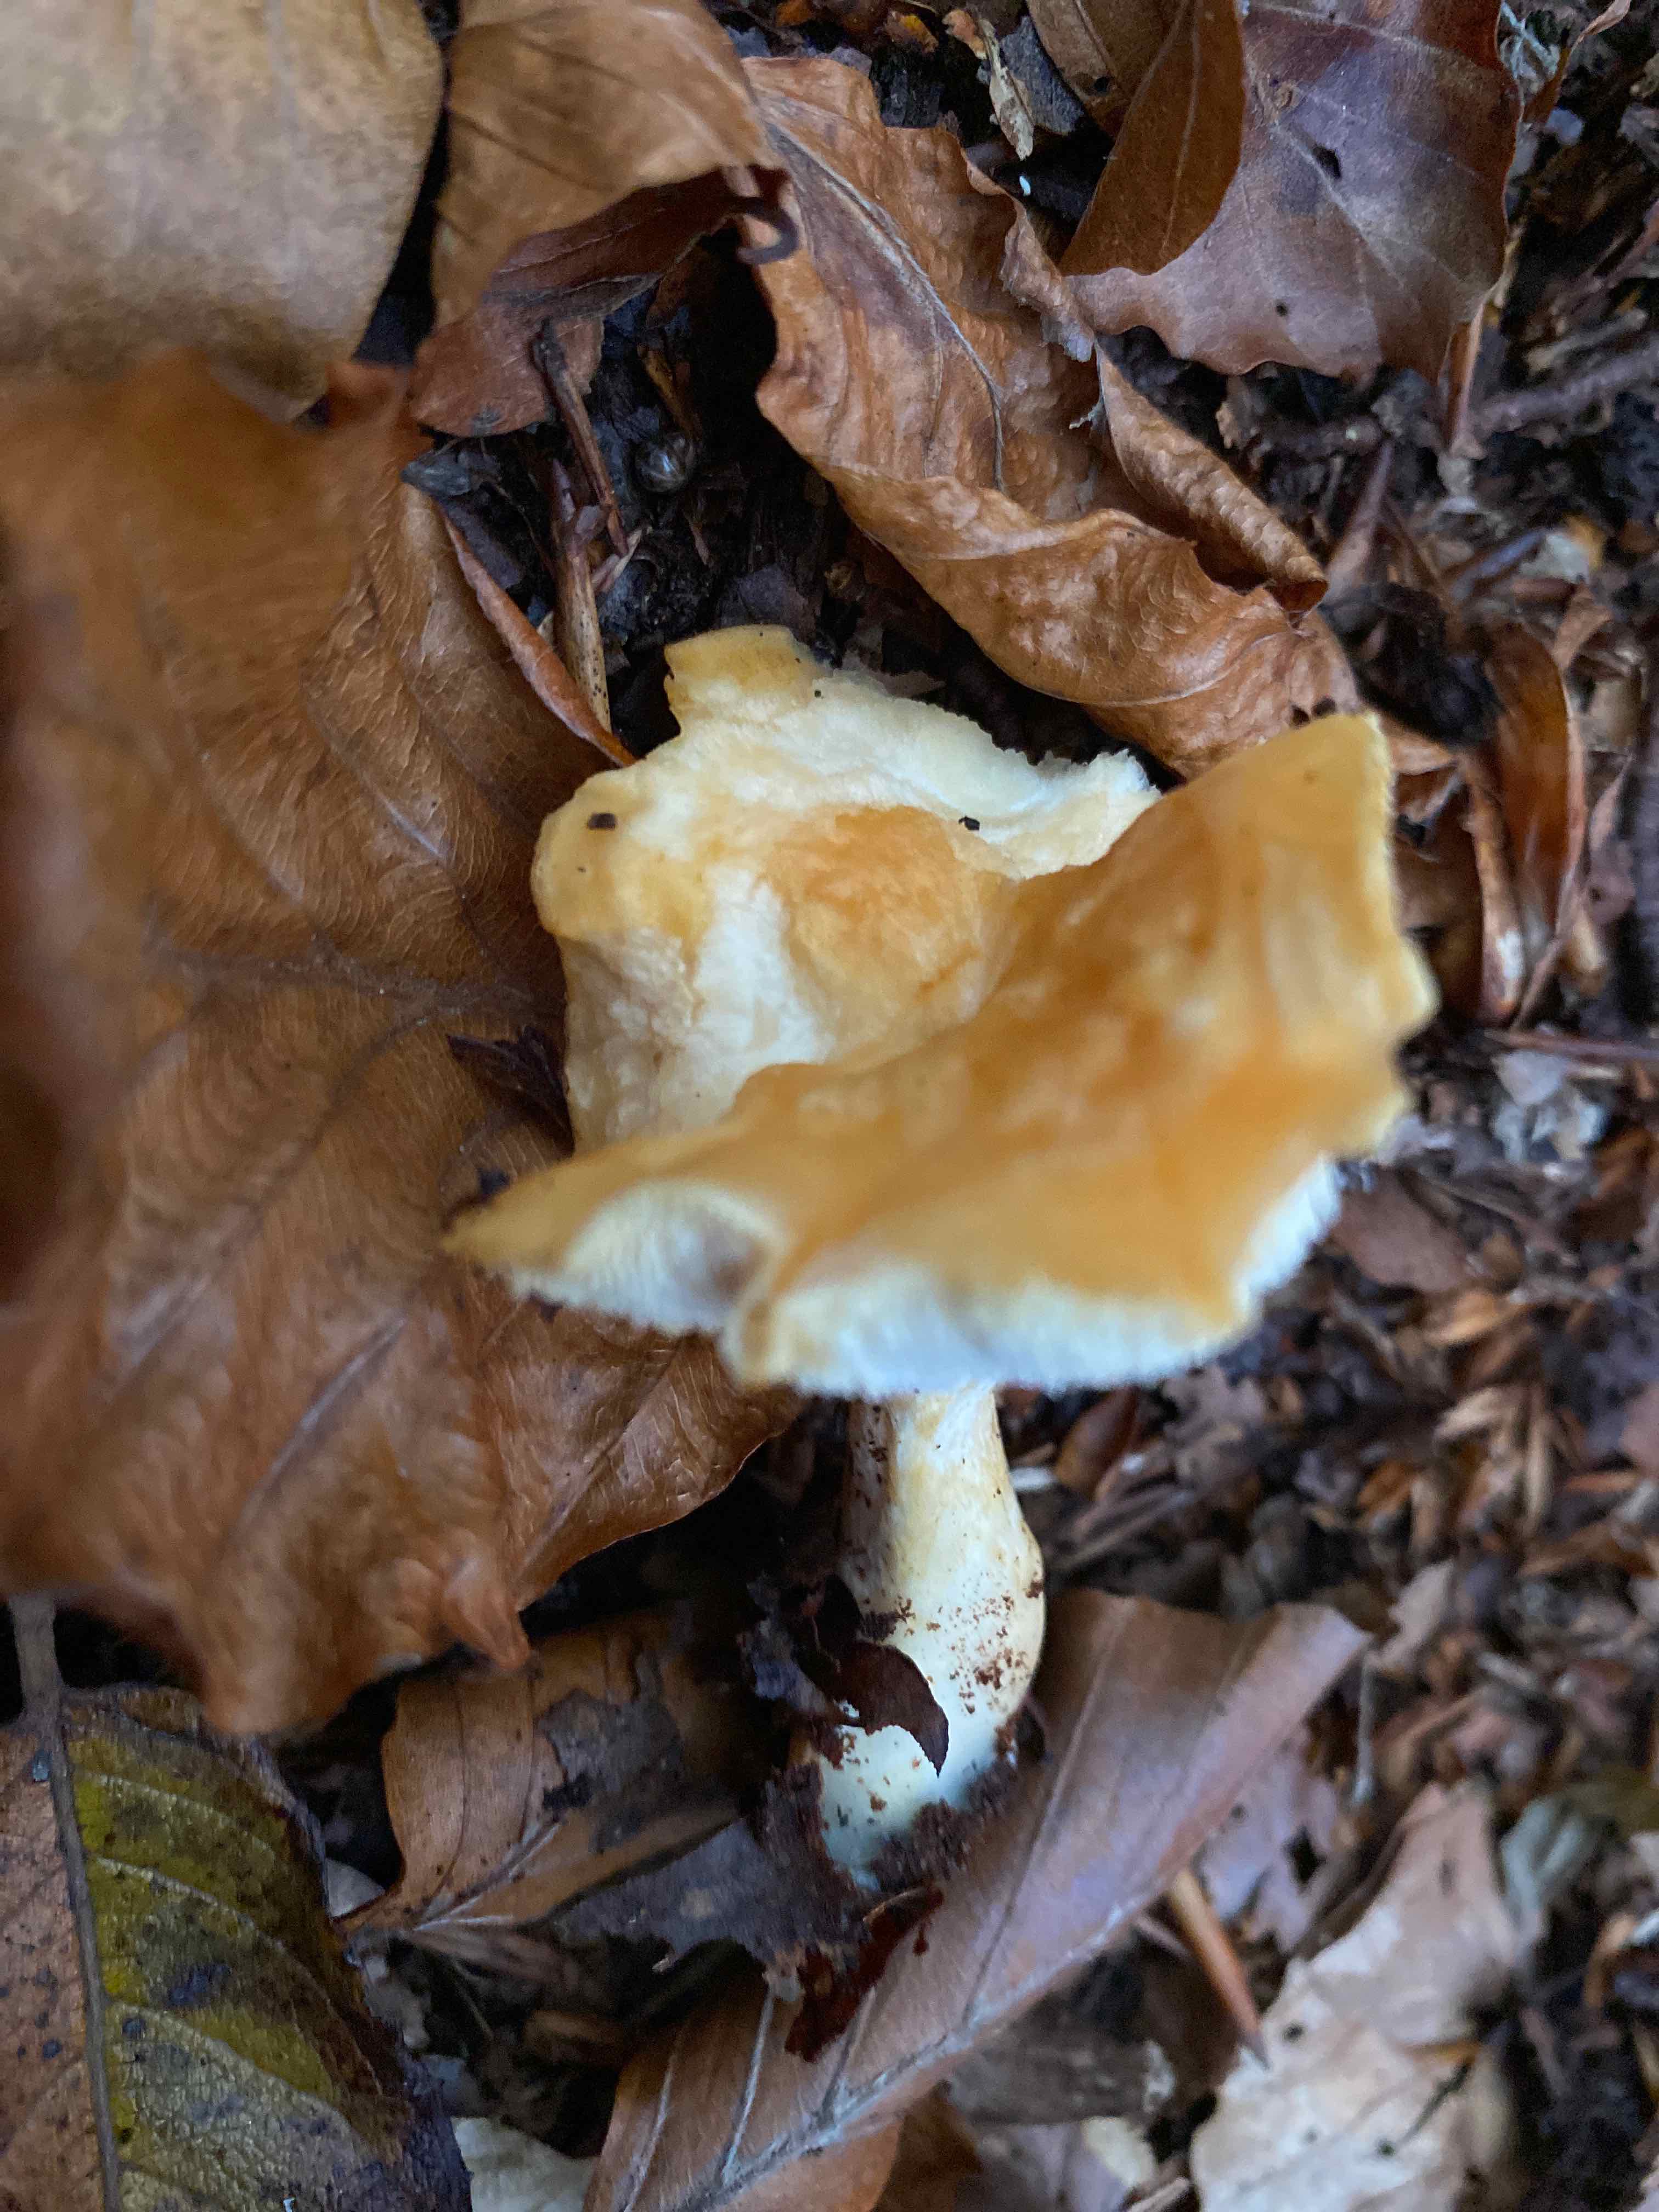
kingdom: Fungi
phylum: Basidiomycota
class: Agaricomycetes
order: Cantharellales
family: Hydnaceae
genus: Hydnum
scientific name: Hydnum
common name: pigsvamp
